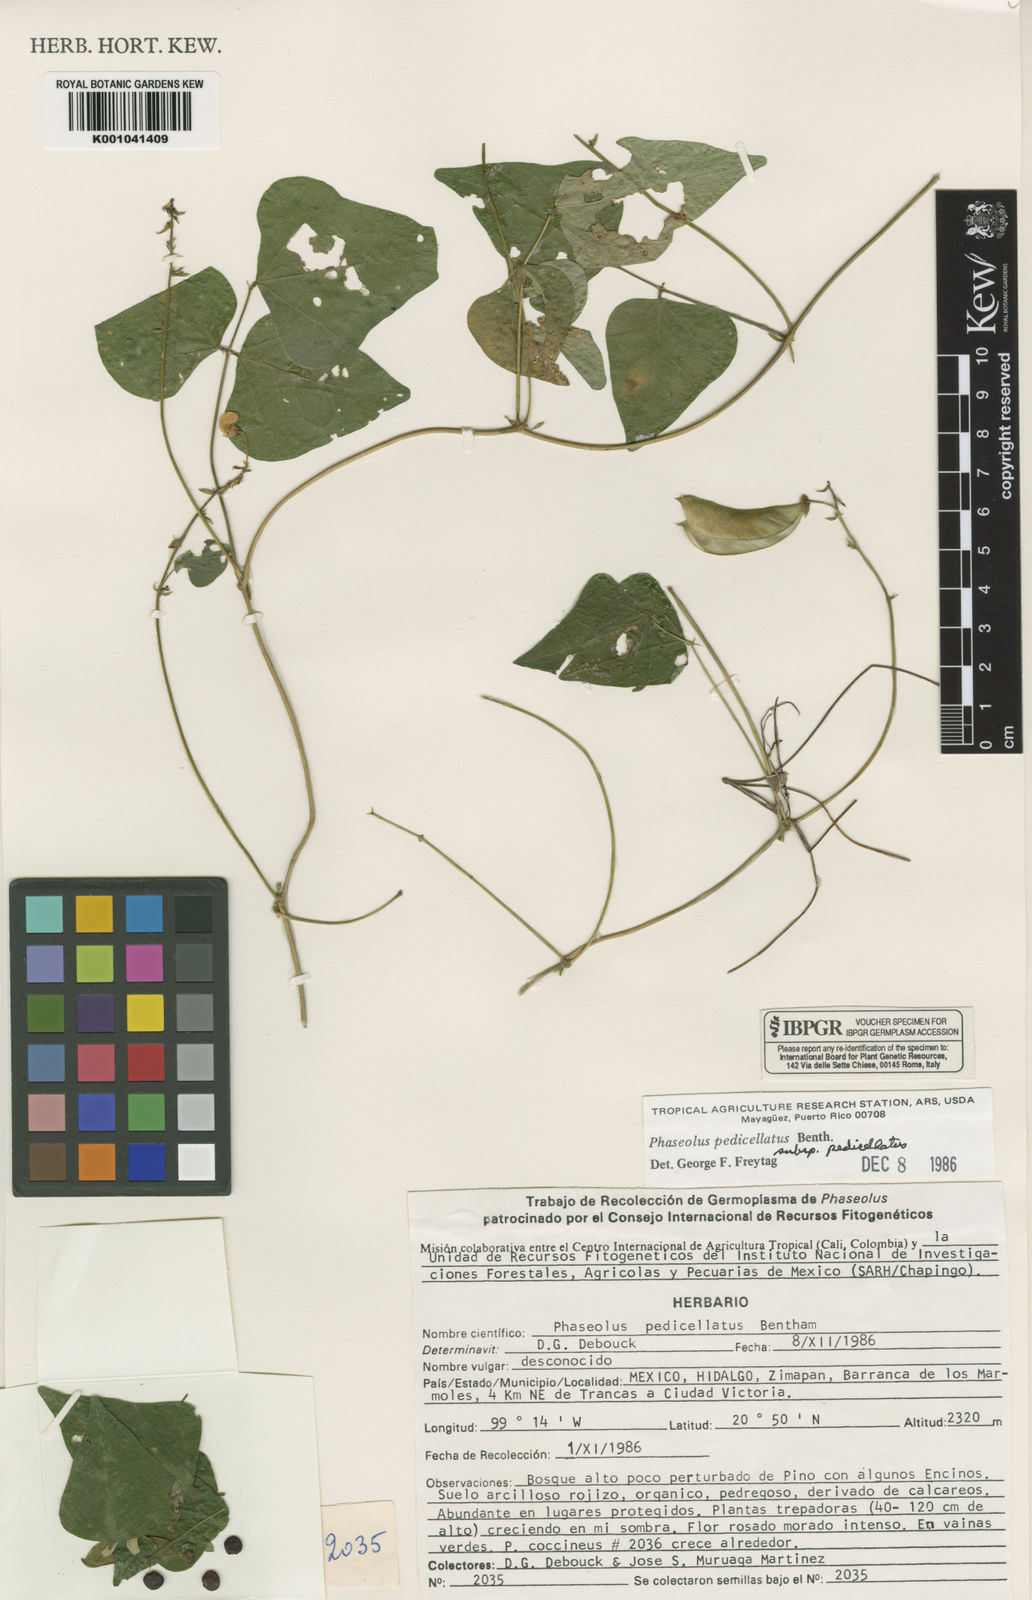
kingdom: Plantae
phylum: Tracheophyta
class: Magnoliopsida
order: Fabales
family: Fabaceae
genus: Phaseolus
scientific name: Phaseolus pedicellatus
